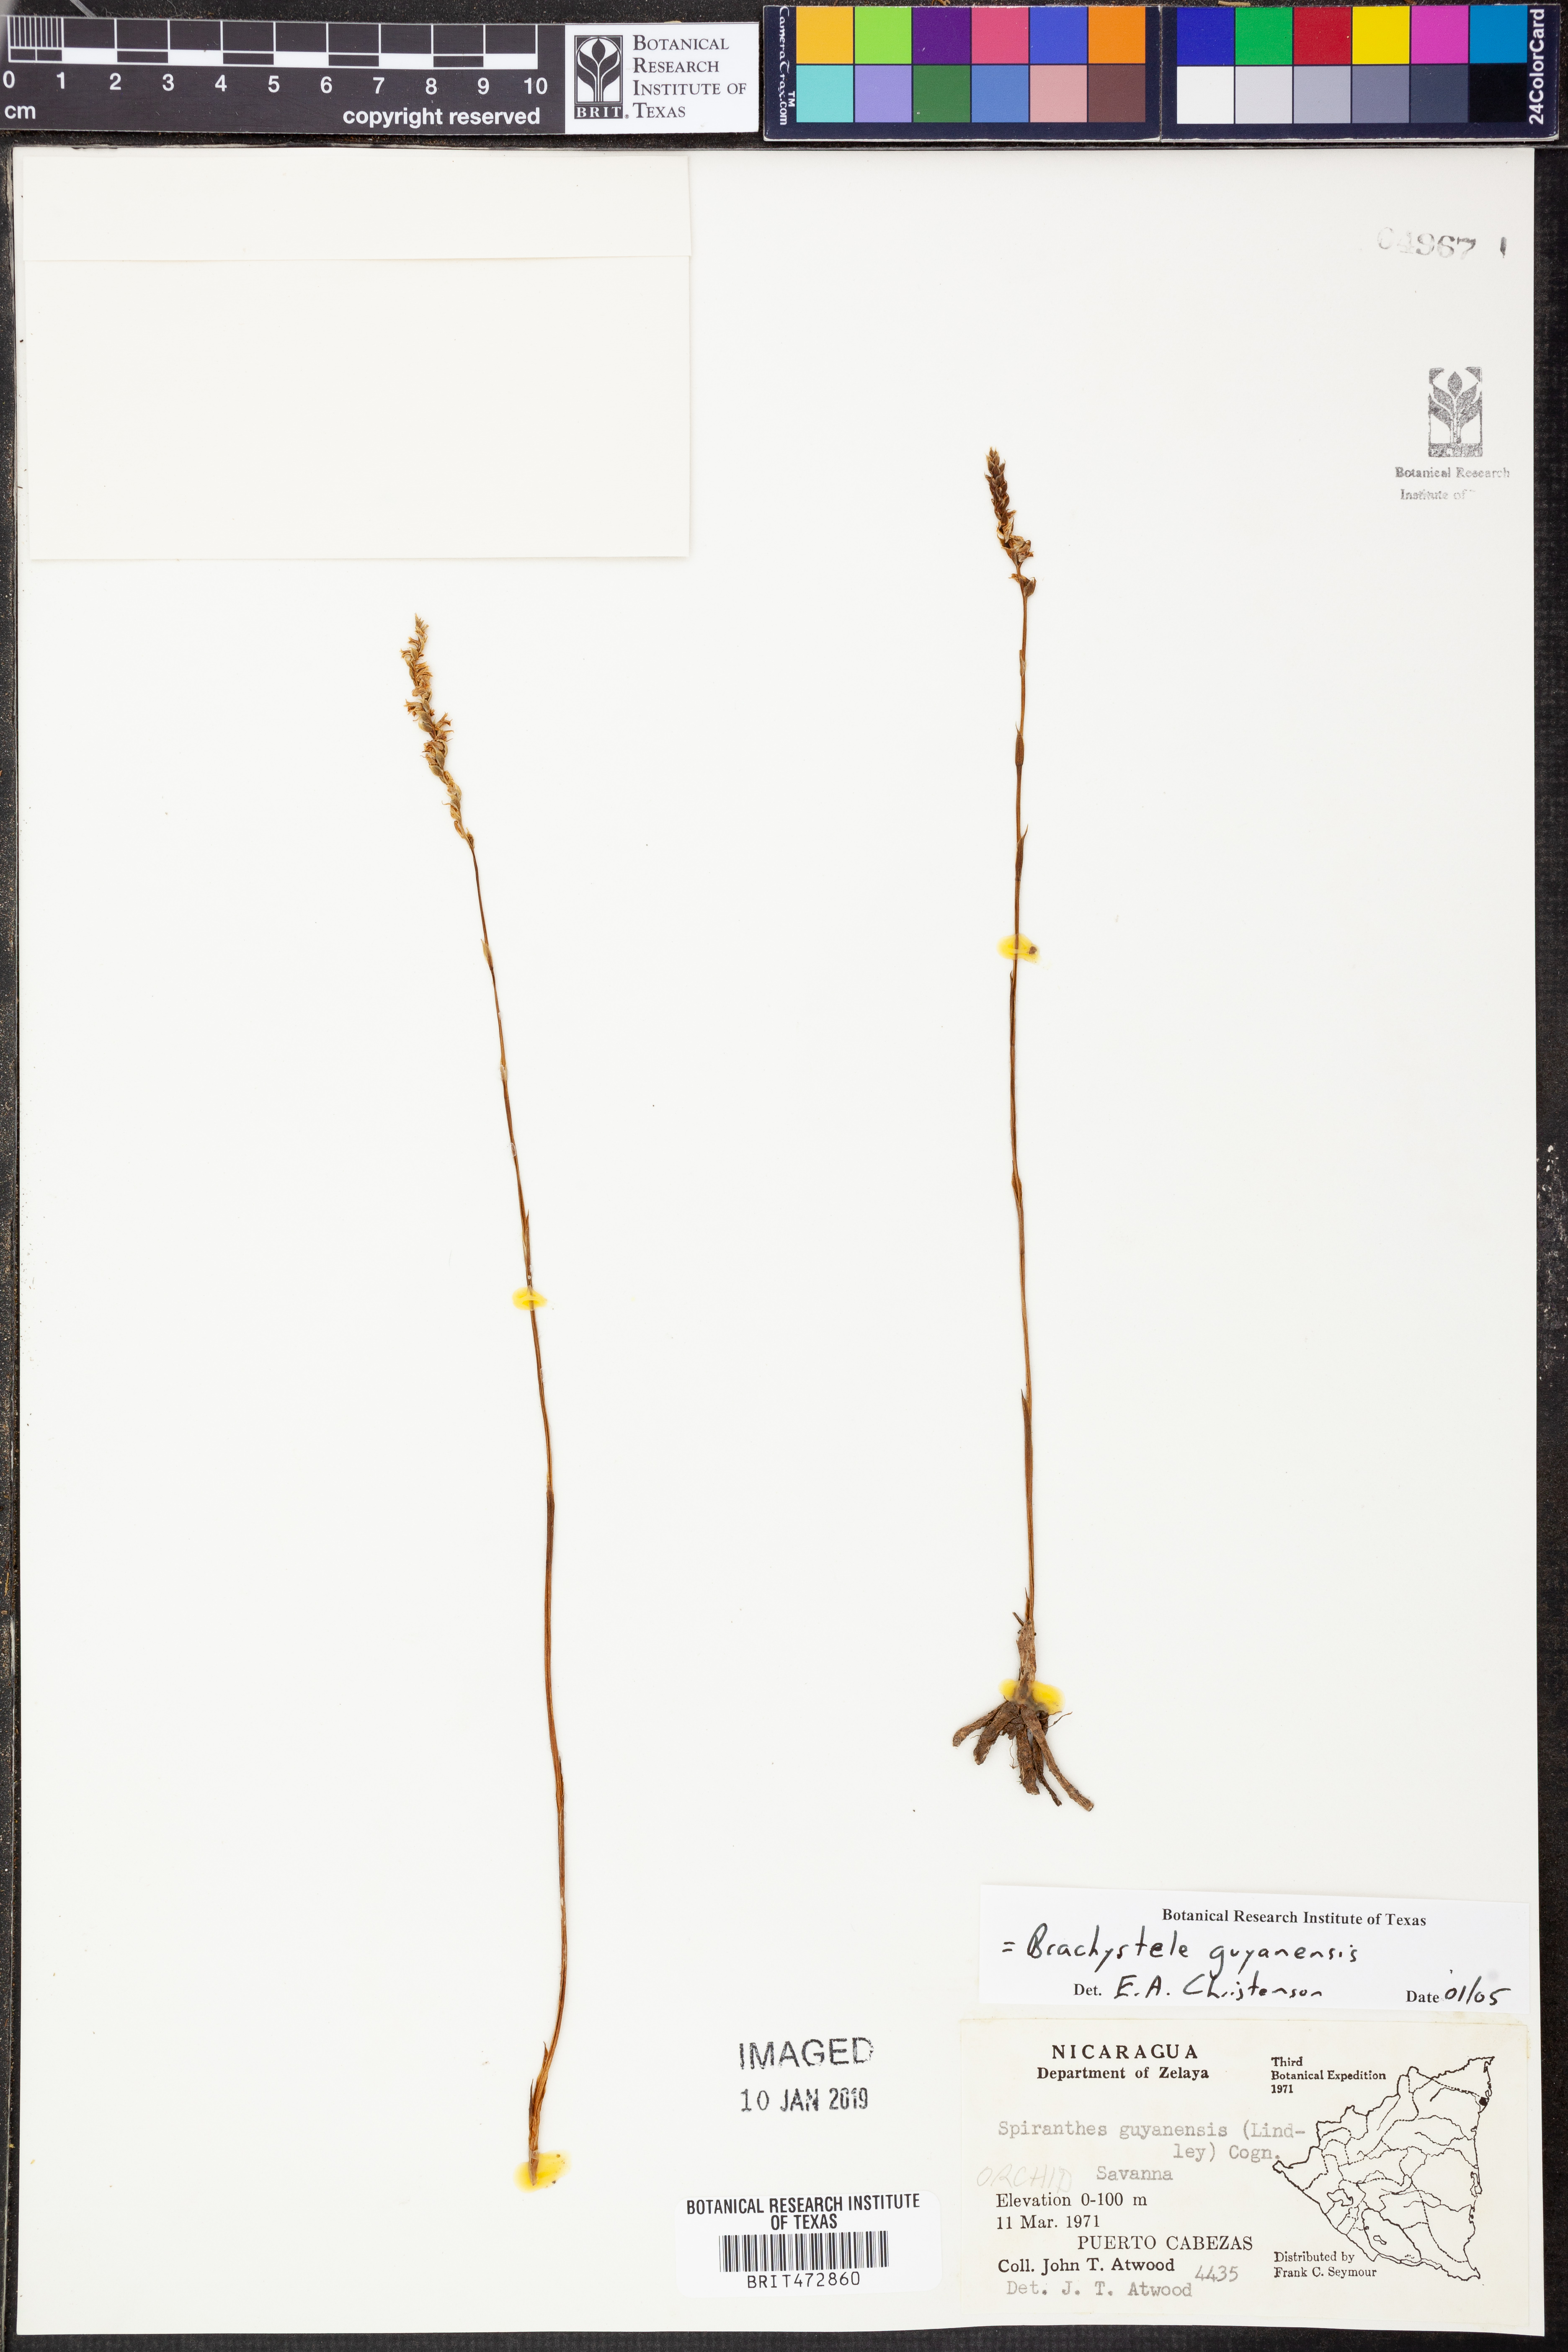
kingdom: Plantae
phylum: Tracheophyta
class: Liliopsida
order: Asparagales
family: Orchidaceae
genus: Brachystele
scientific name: Brachystele guayanensis
